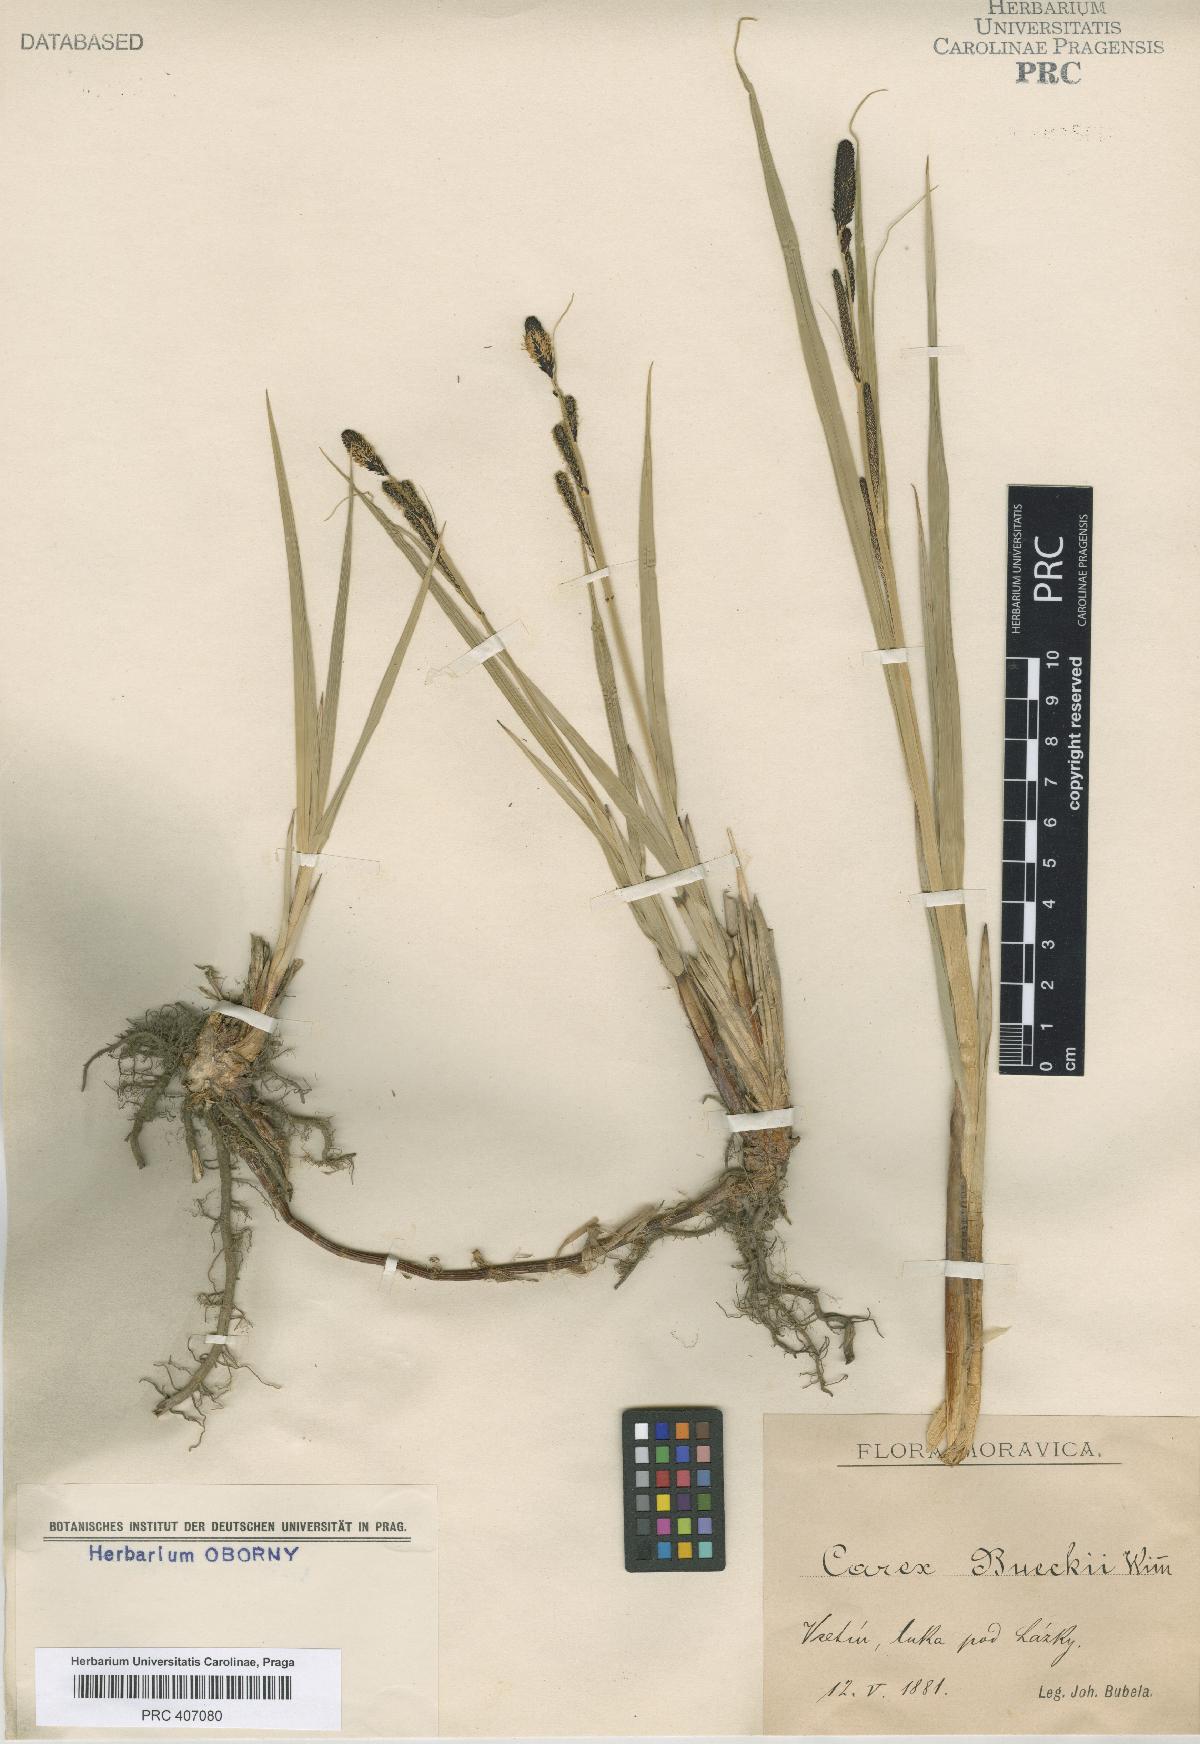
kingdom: Plantae
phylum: Tracheophyta
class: Liliopsida
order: Poales
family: Cyperaceae
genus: Carex
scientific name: Carex buekii
